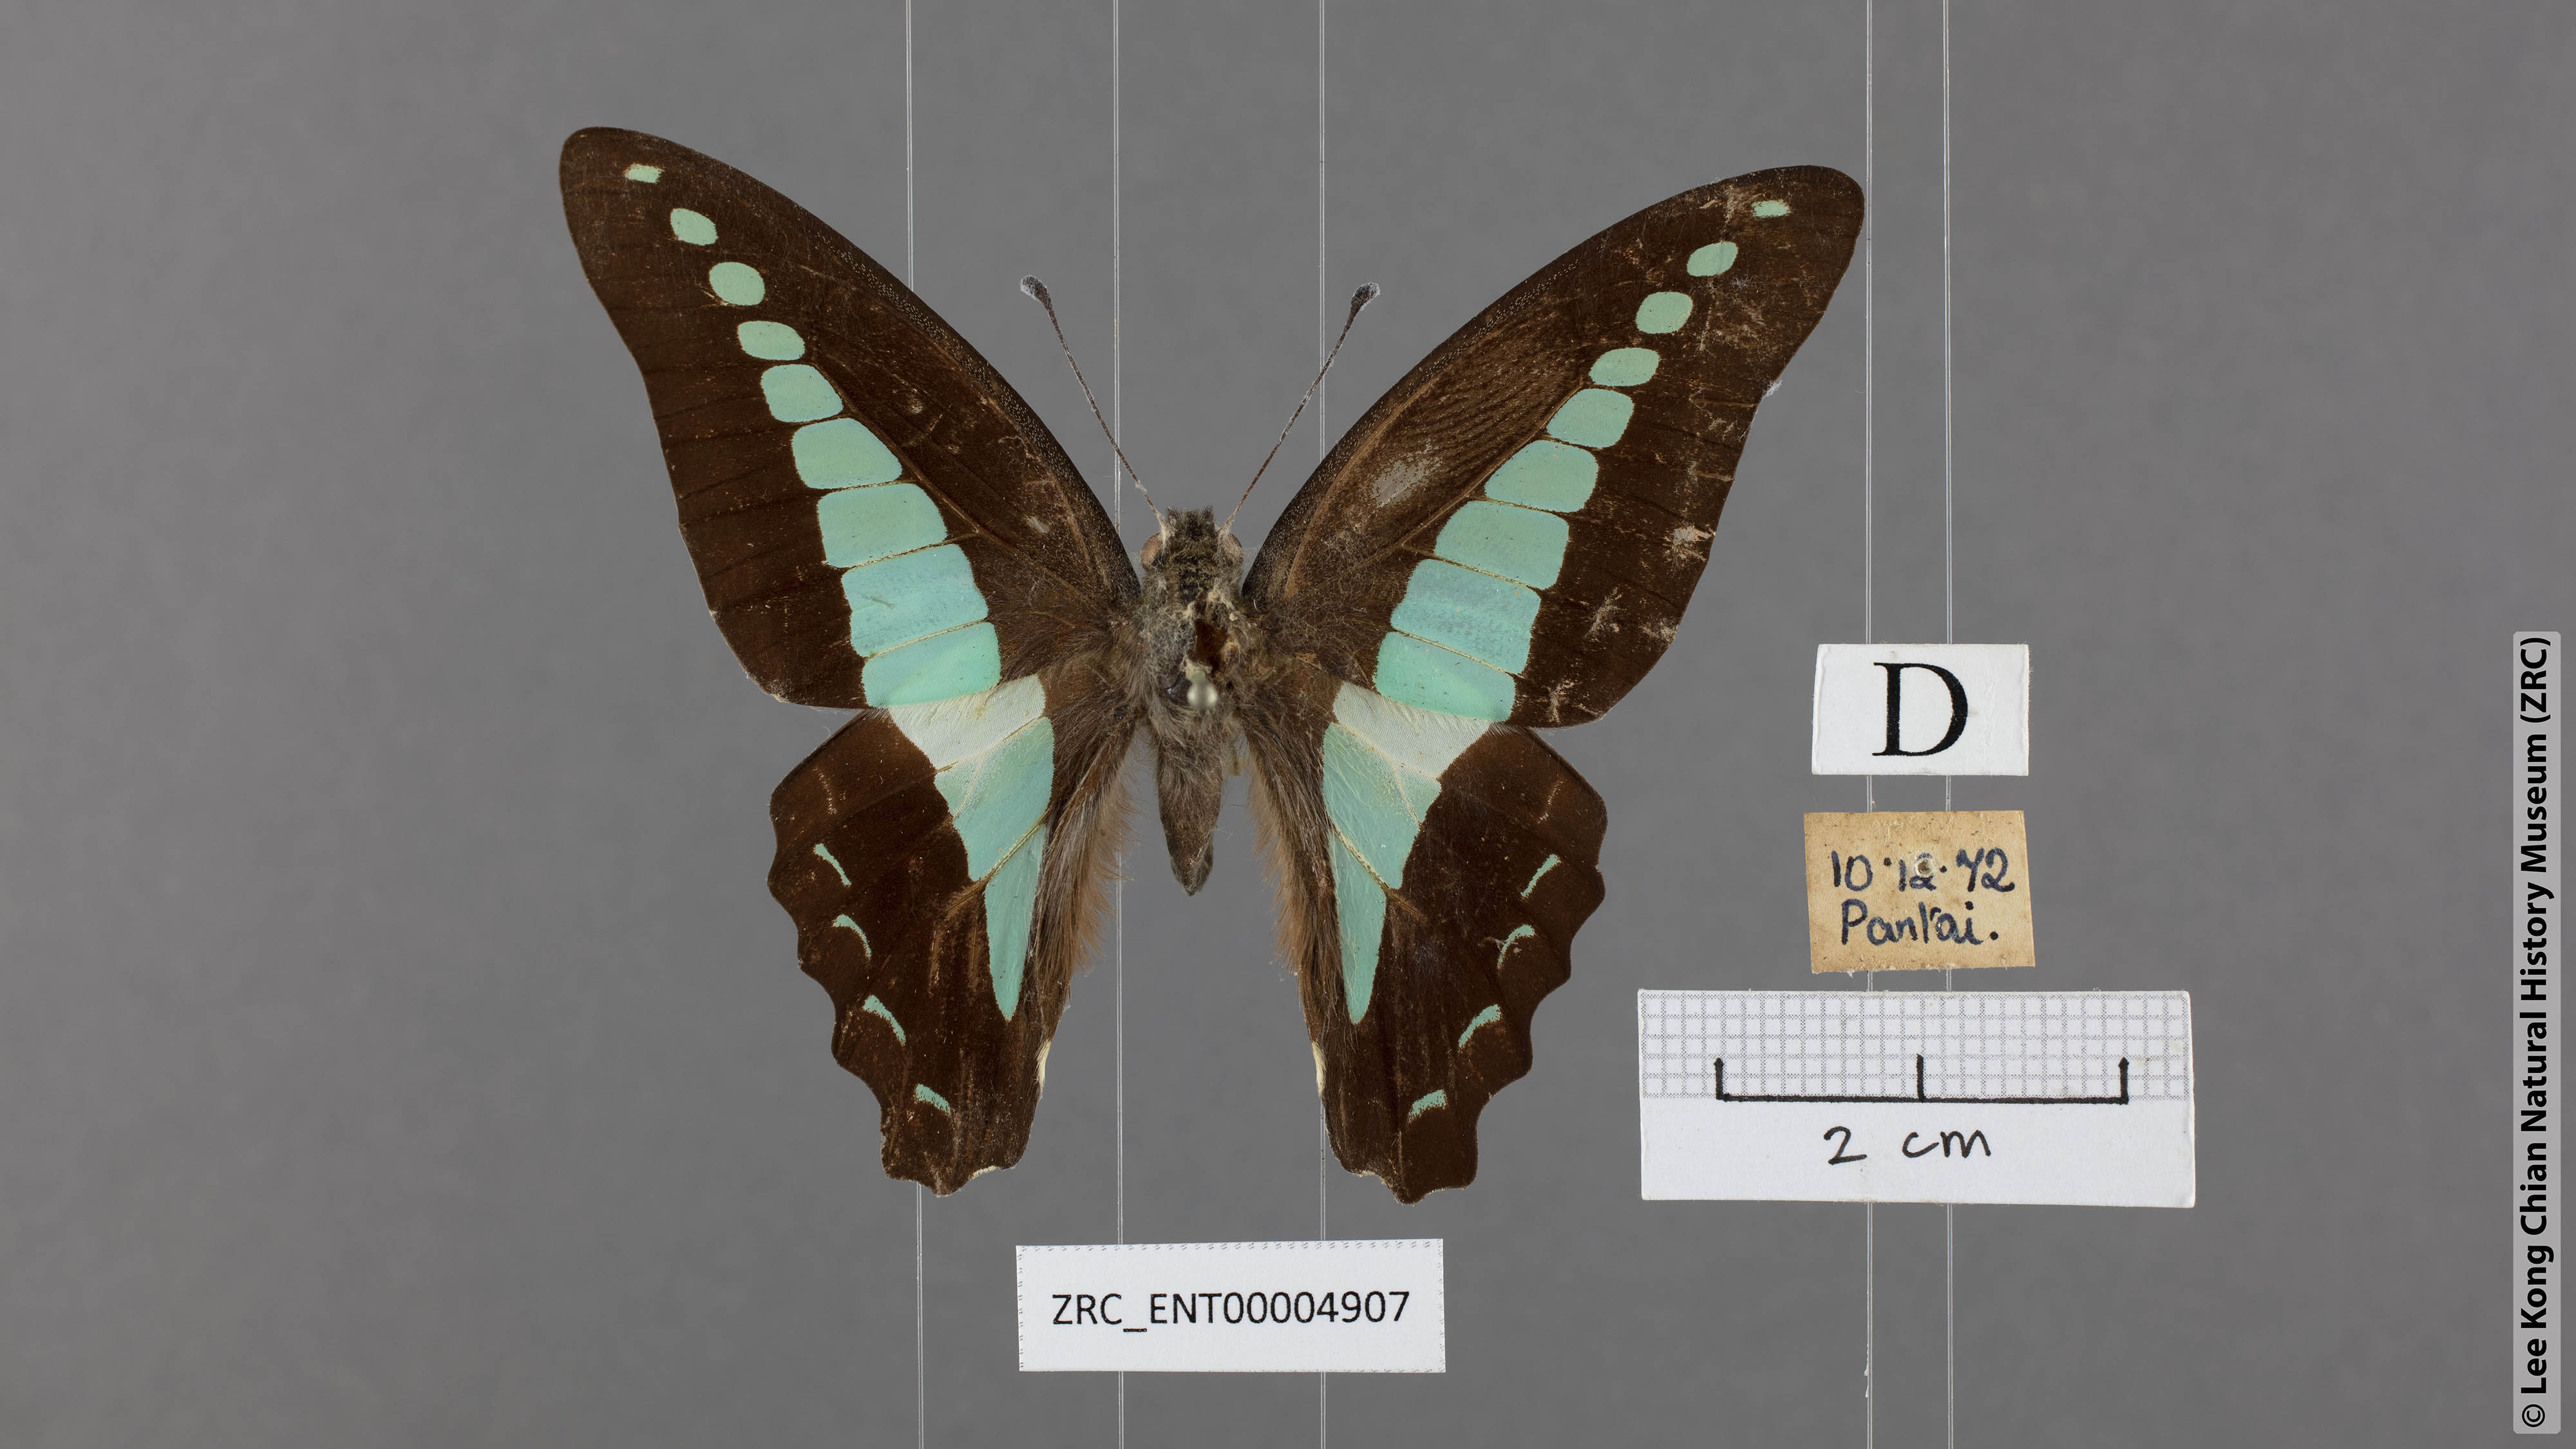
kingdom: Fungi
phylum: Ascomycota
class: Sordariomycetes
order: Microascales
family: Microascaceae
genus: Graphium
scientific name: Graphium sarpedon
